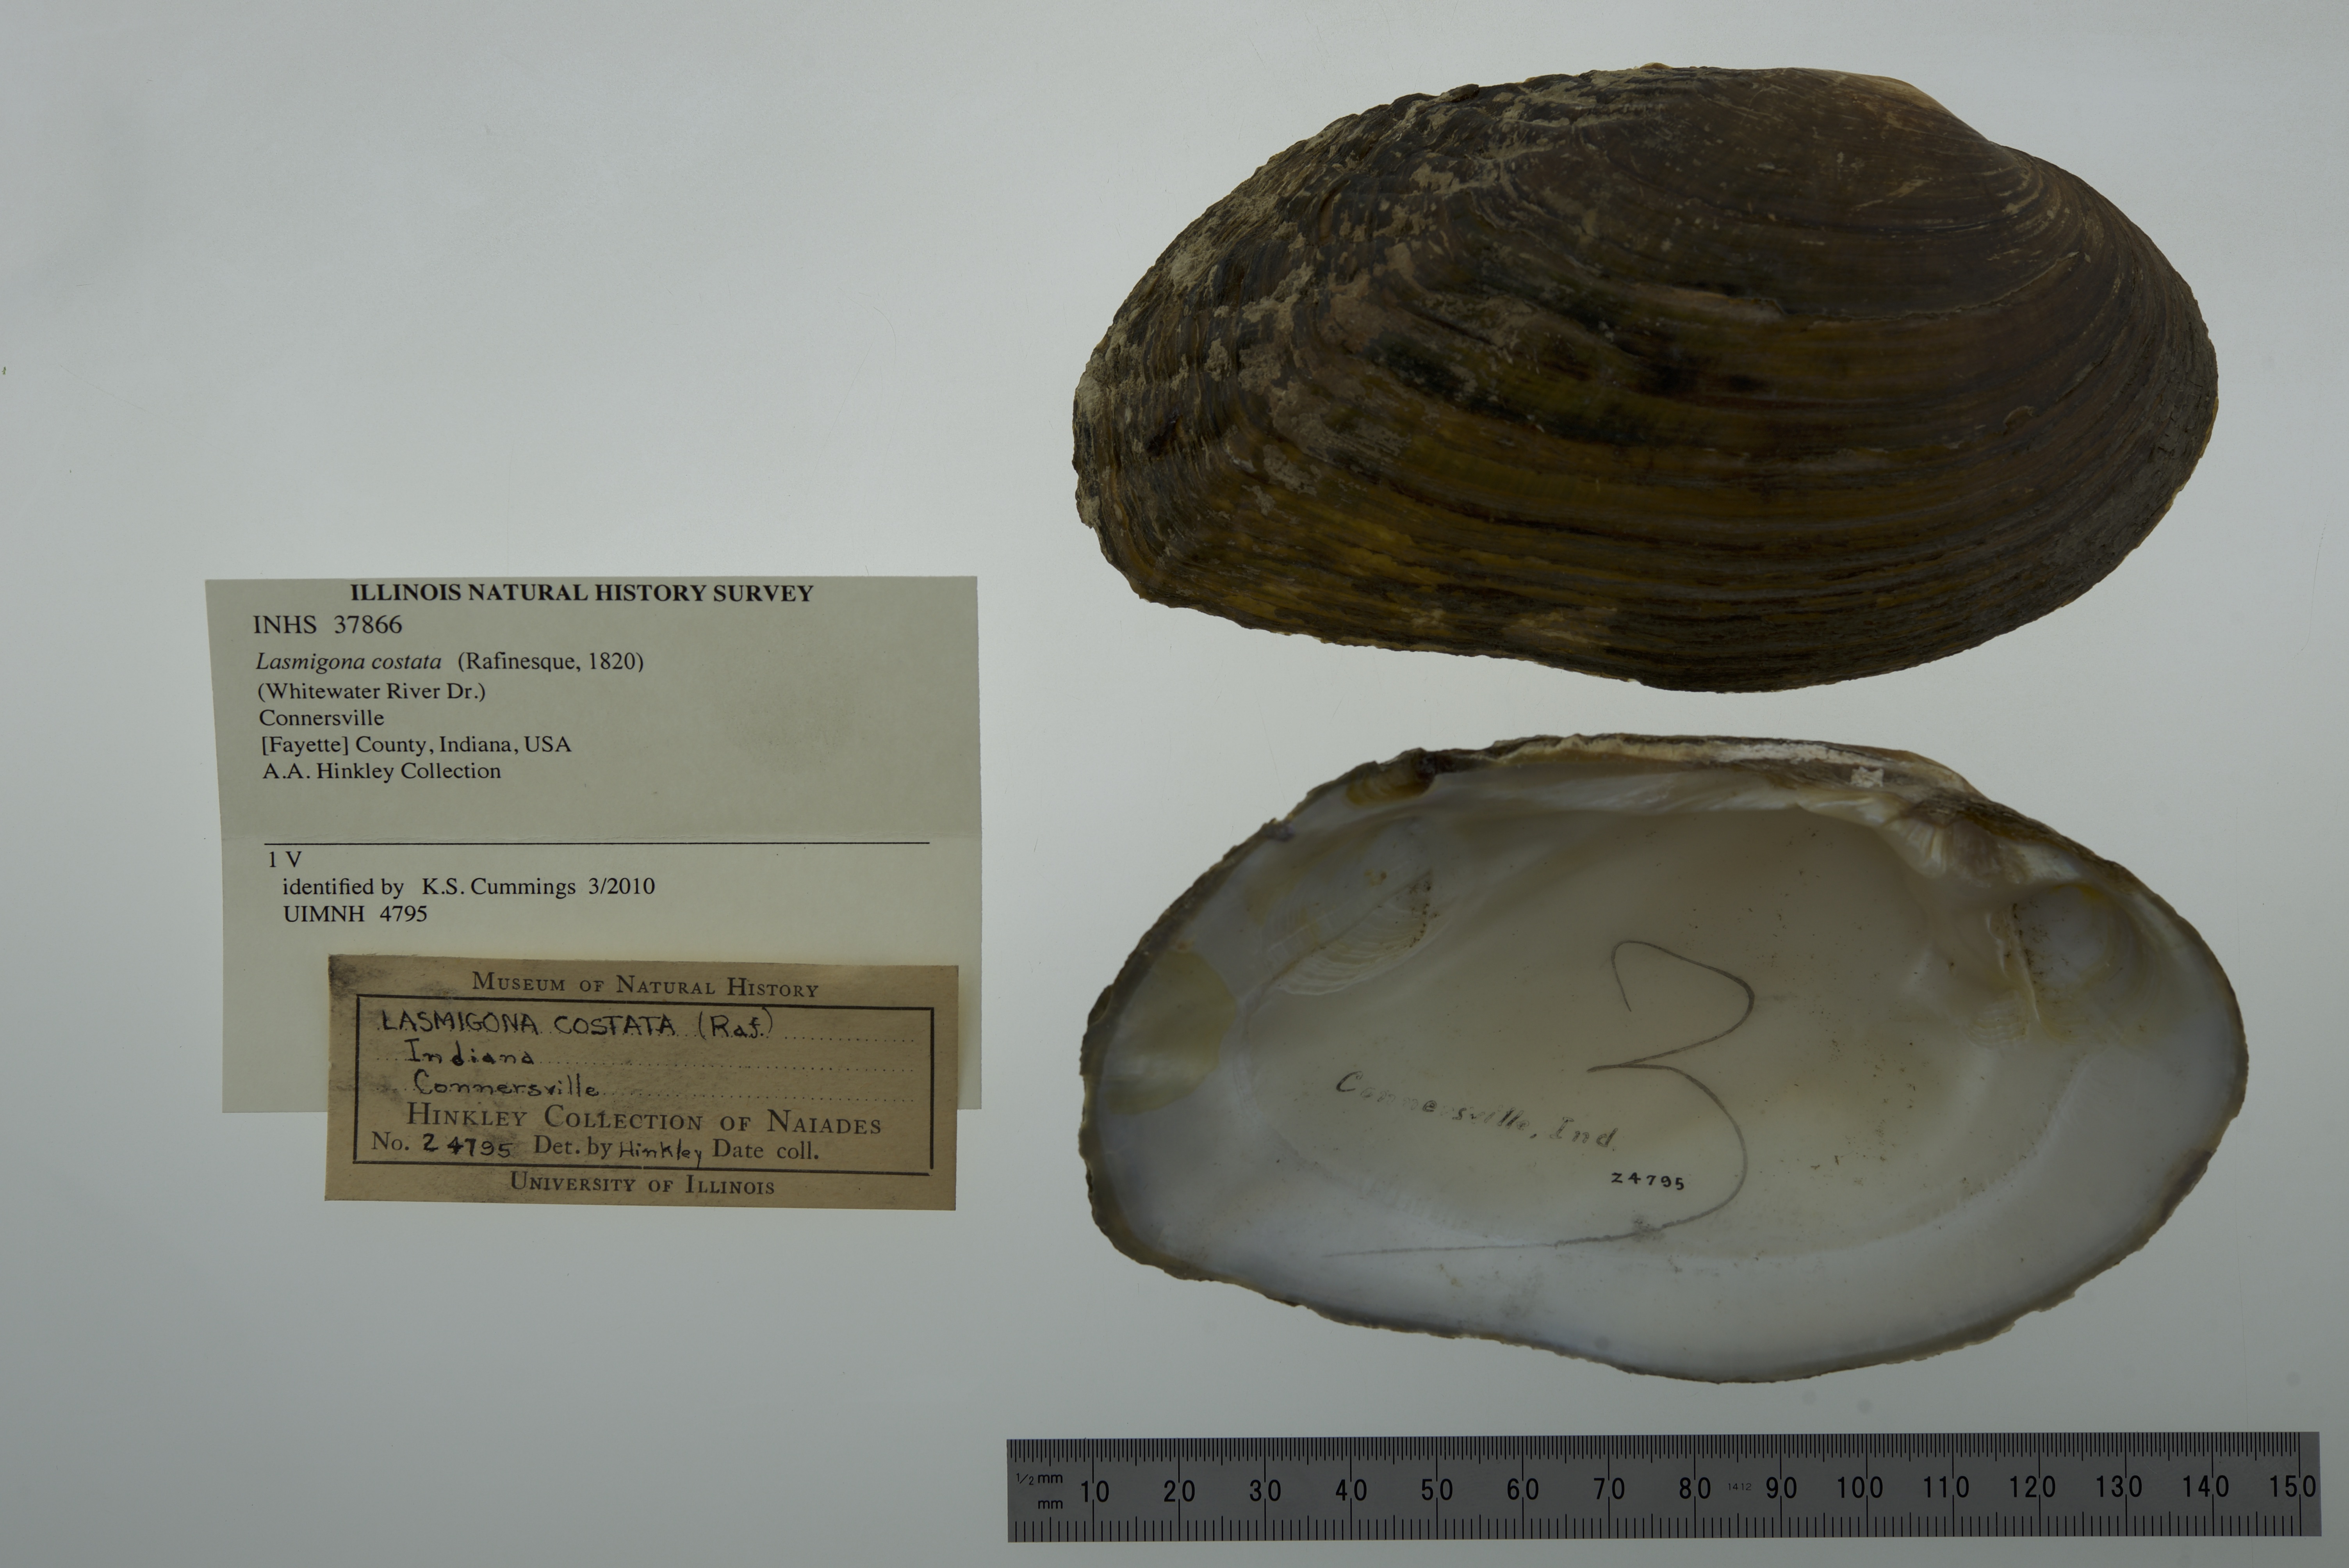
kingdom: Animalia
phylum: Mollusca
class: Bivalvia
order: Unionida
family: Unionidae
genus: Lasmigona
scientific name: Lasmigona costata
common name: Flutedshell
